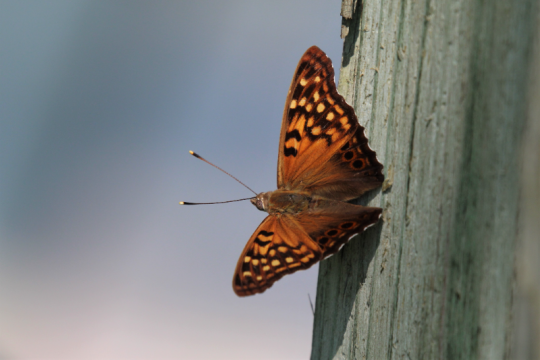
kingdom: Animalia
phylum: Arthropoda
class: Insecta
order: Lepidoptera
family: Nymphalidae
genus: Asterocampa
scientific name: Asterocampa clyton
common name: Tawny Emperor
